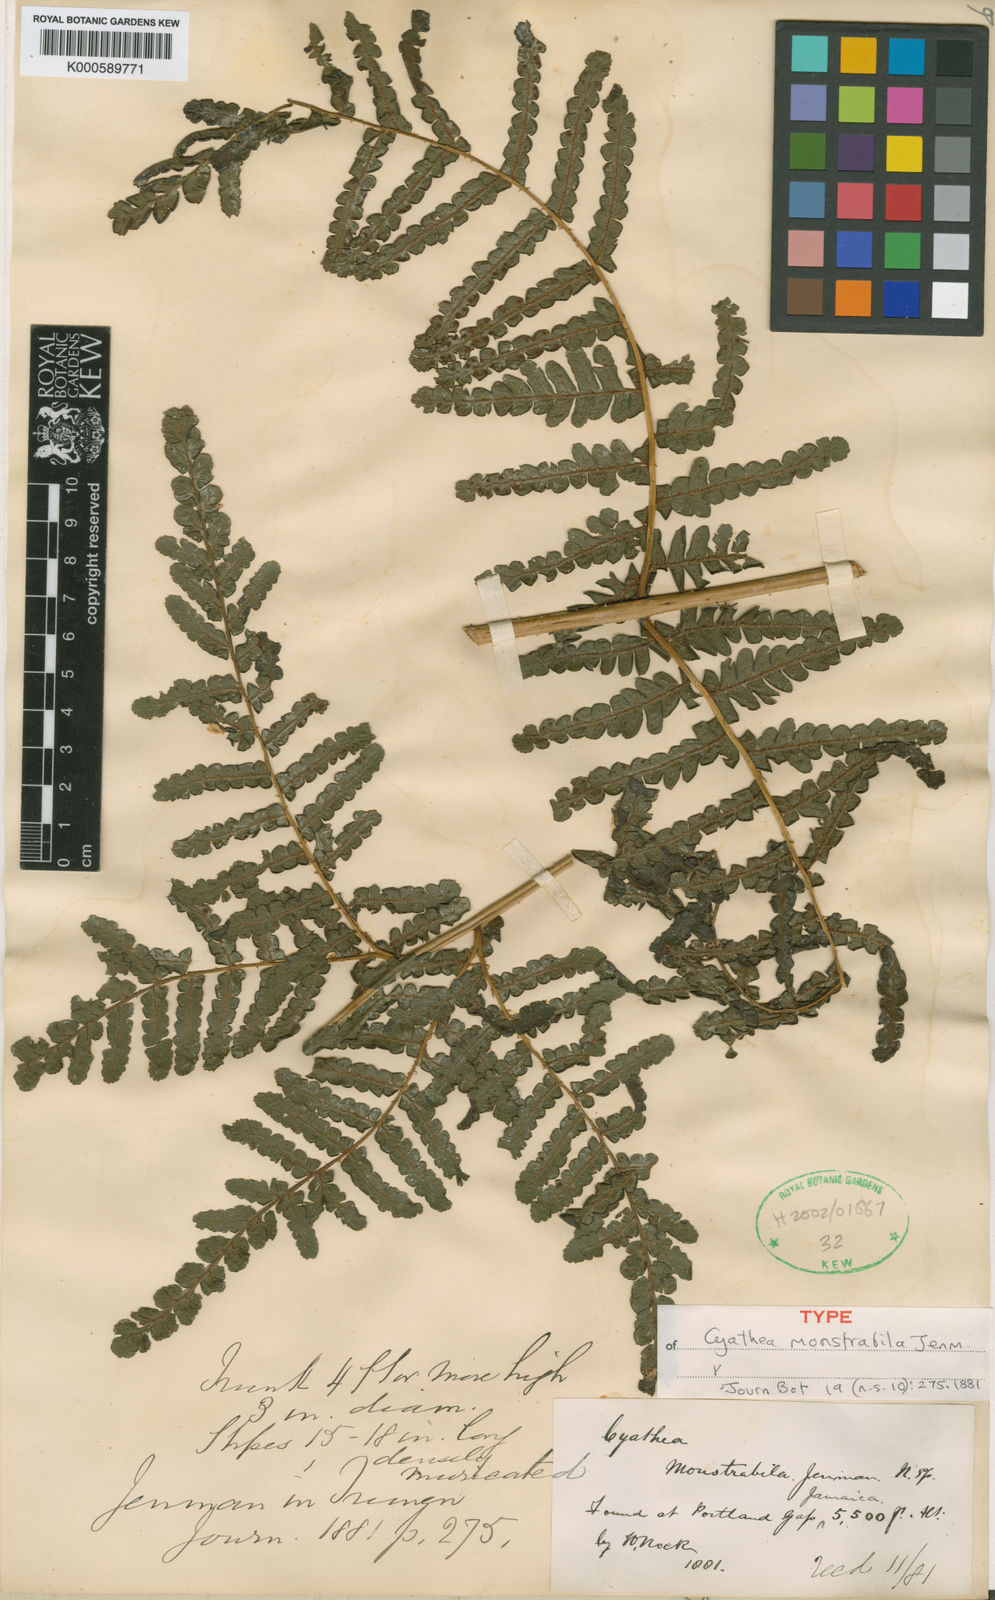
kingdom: Plantae
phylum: Tracheophyta
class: Polypodiopsida
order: Cyatheales
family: Cyatheaceae
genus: Cyathea
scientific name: Cyathea
